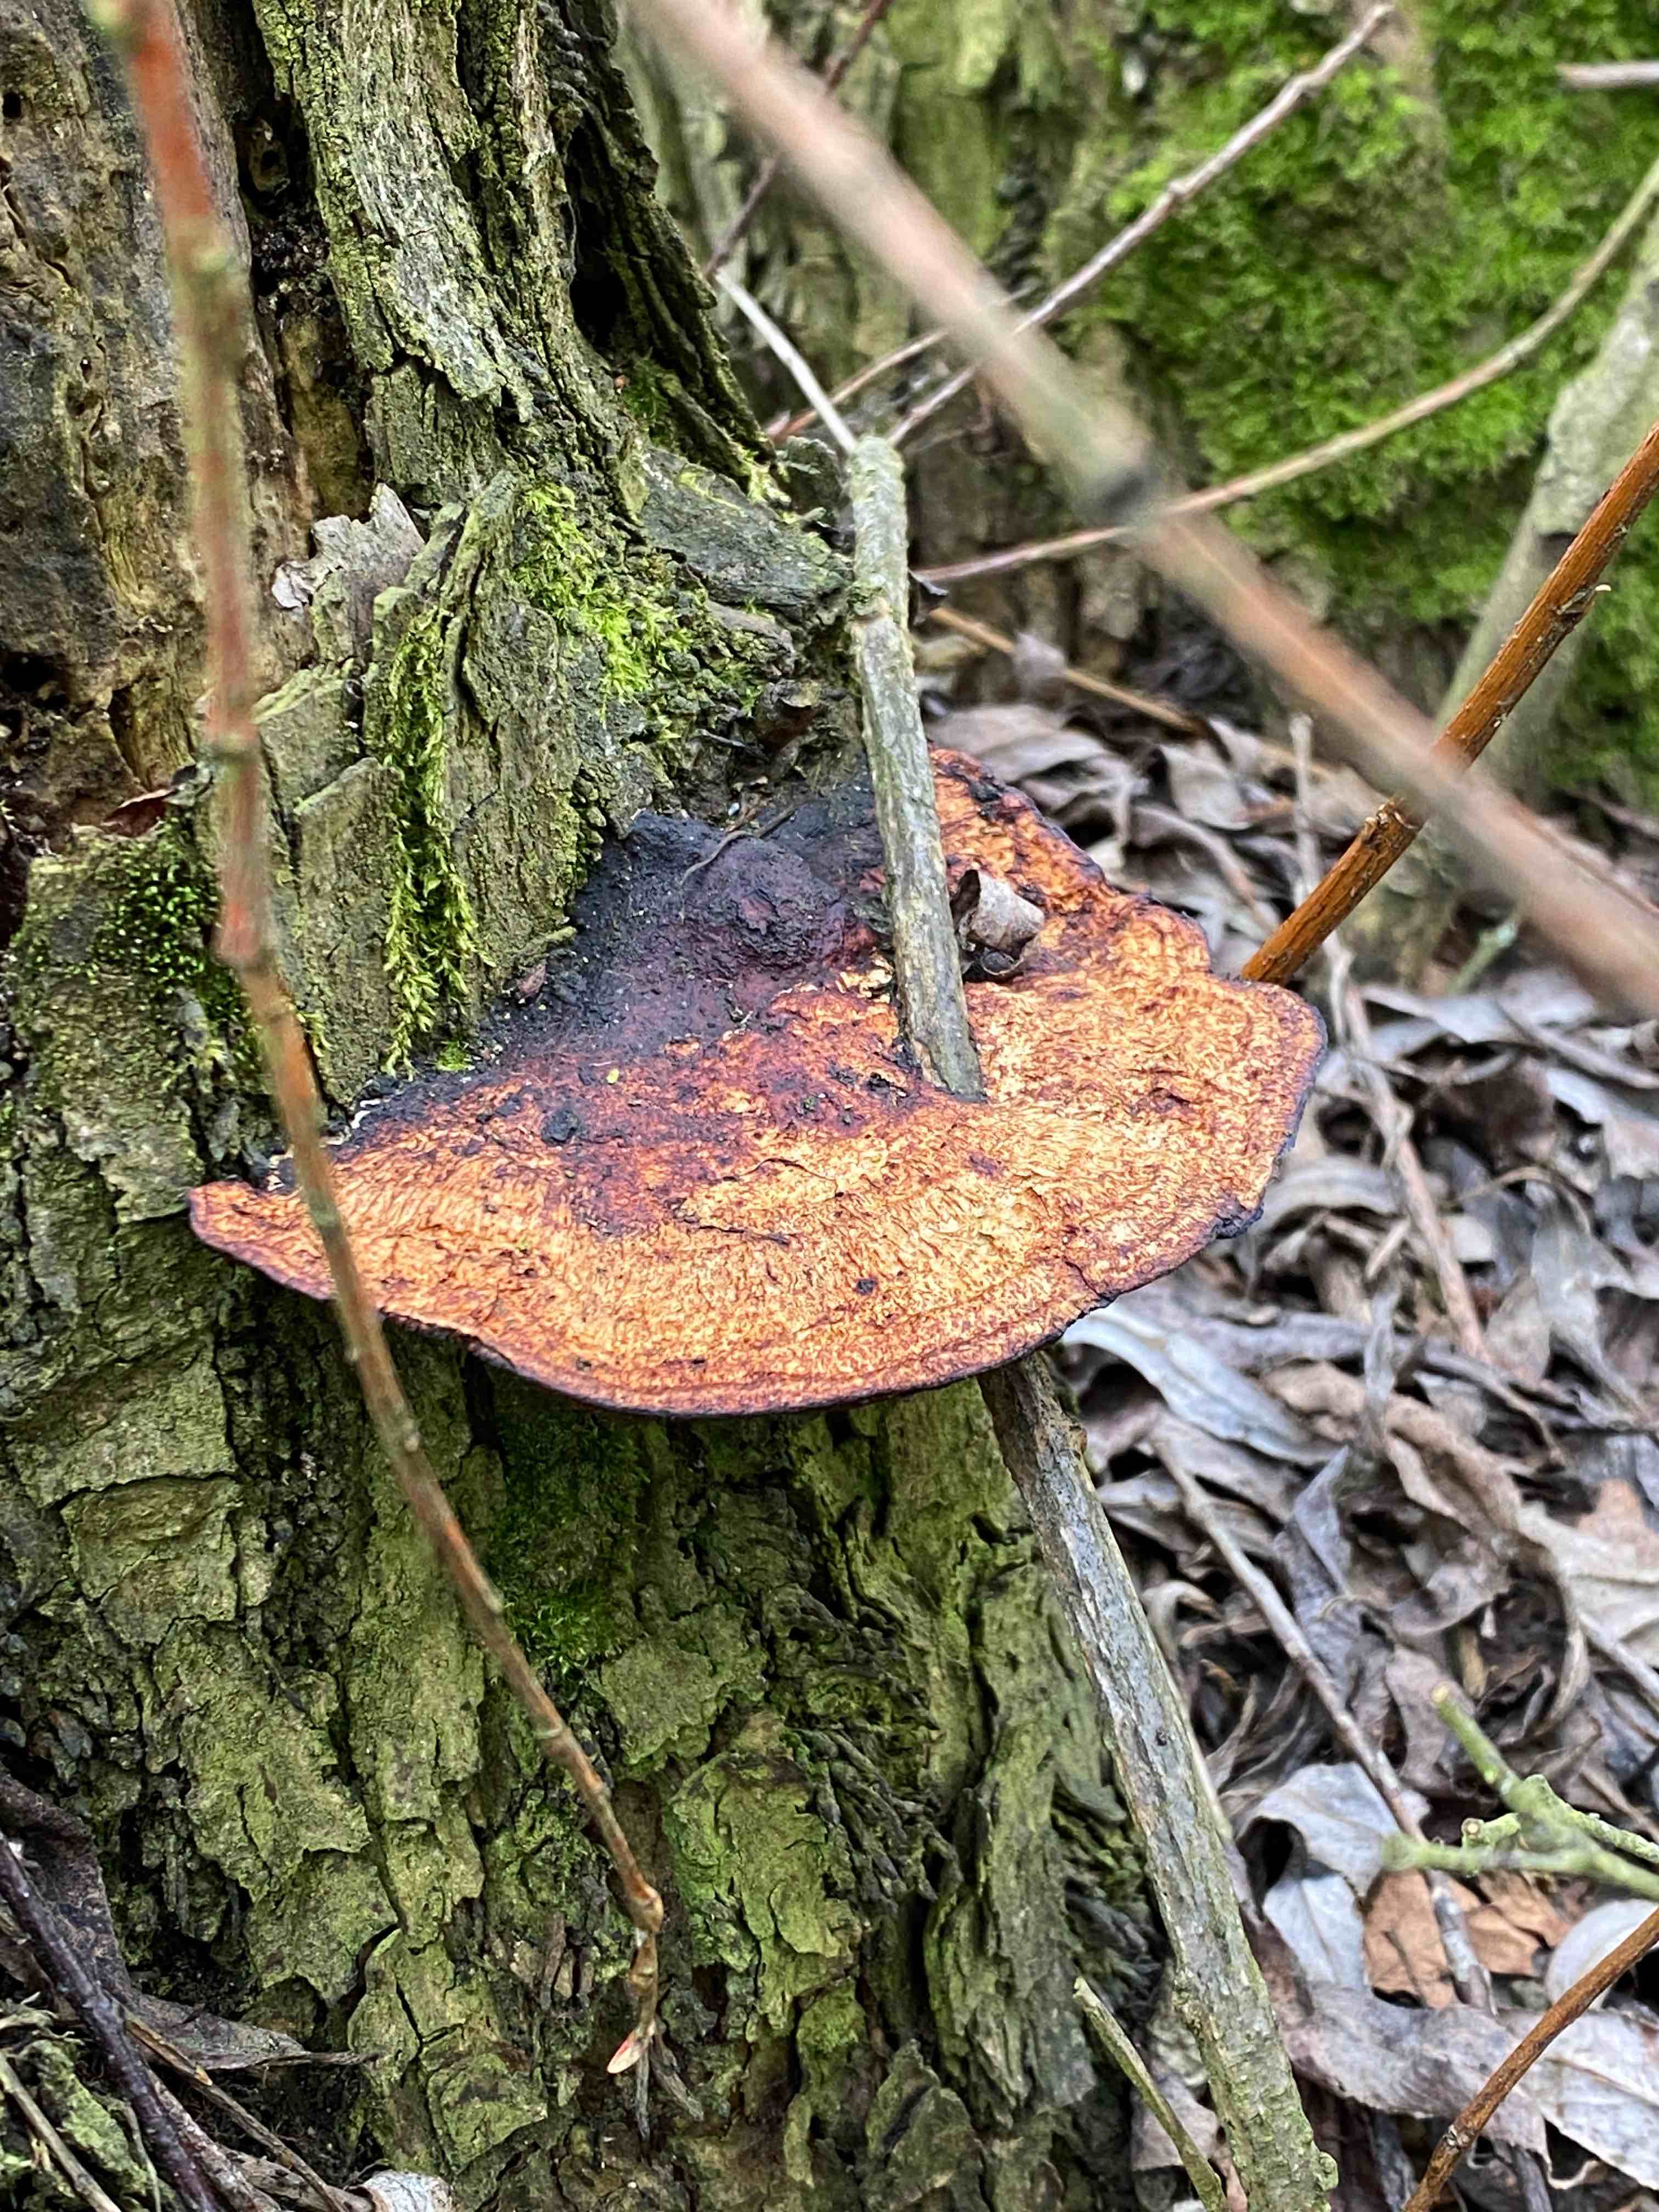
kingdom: Fungi
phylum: Basidiomycota
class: Agaricomycetes
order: Polyporales
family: Polyporaceae
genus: Daedaleopsis
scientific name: Daedaleopsis confragosa
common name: rødmende læderporesvamp
